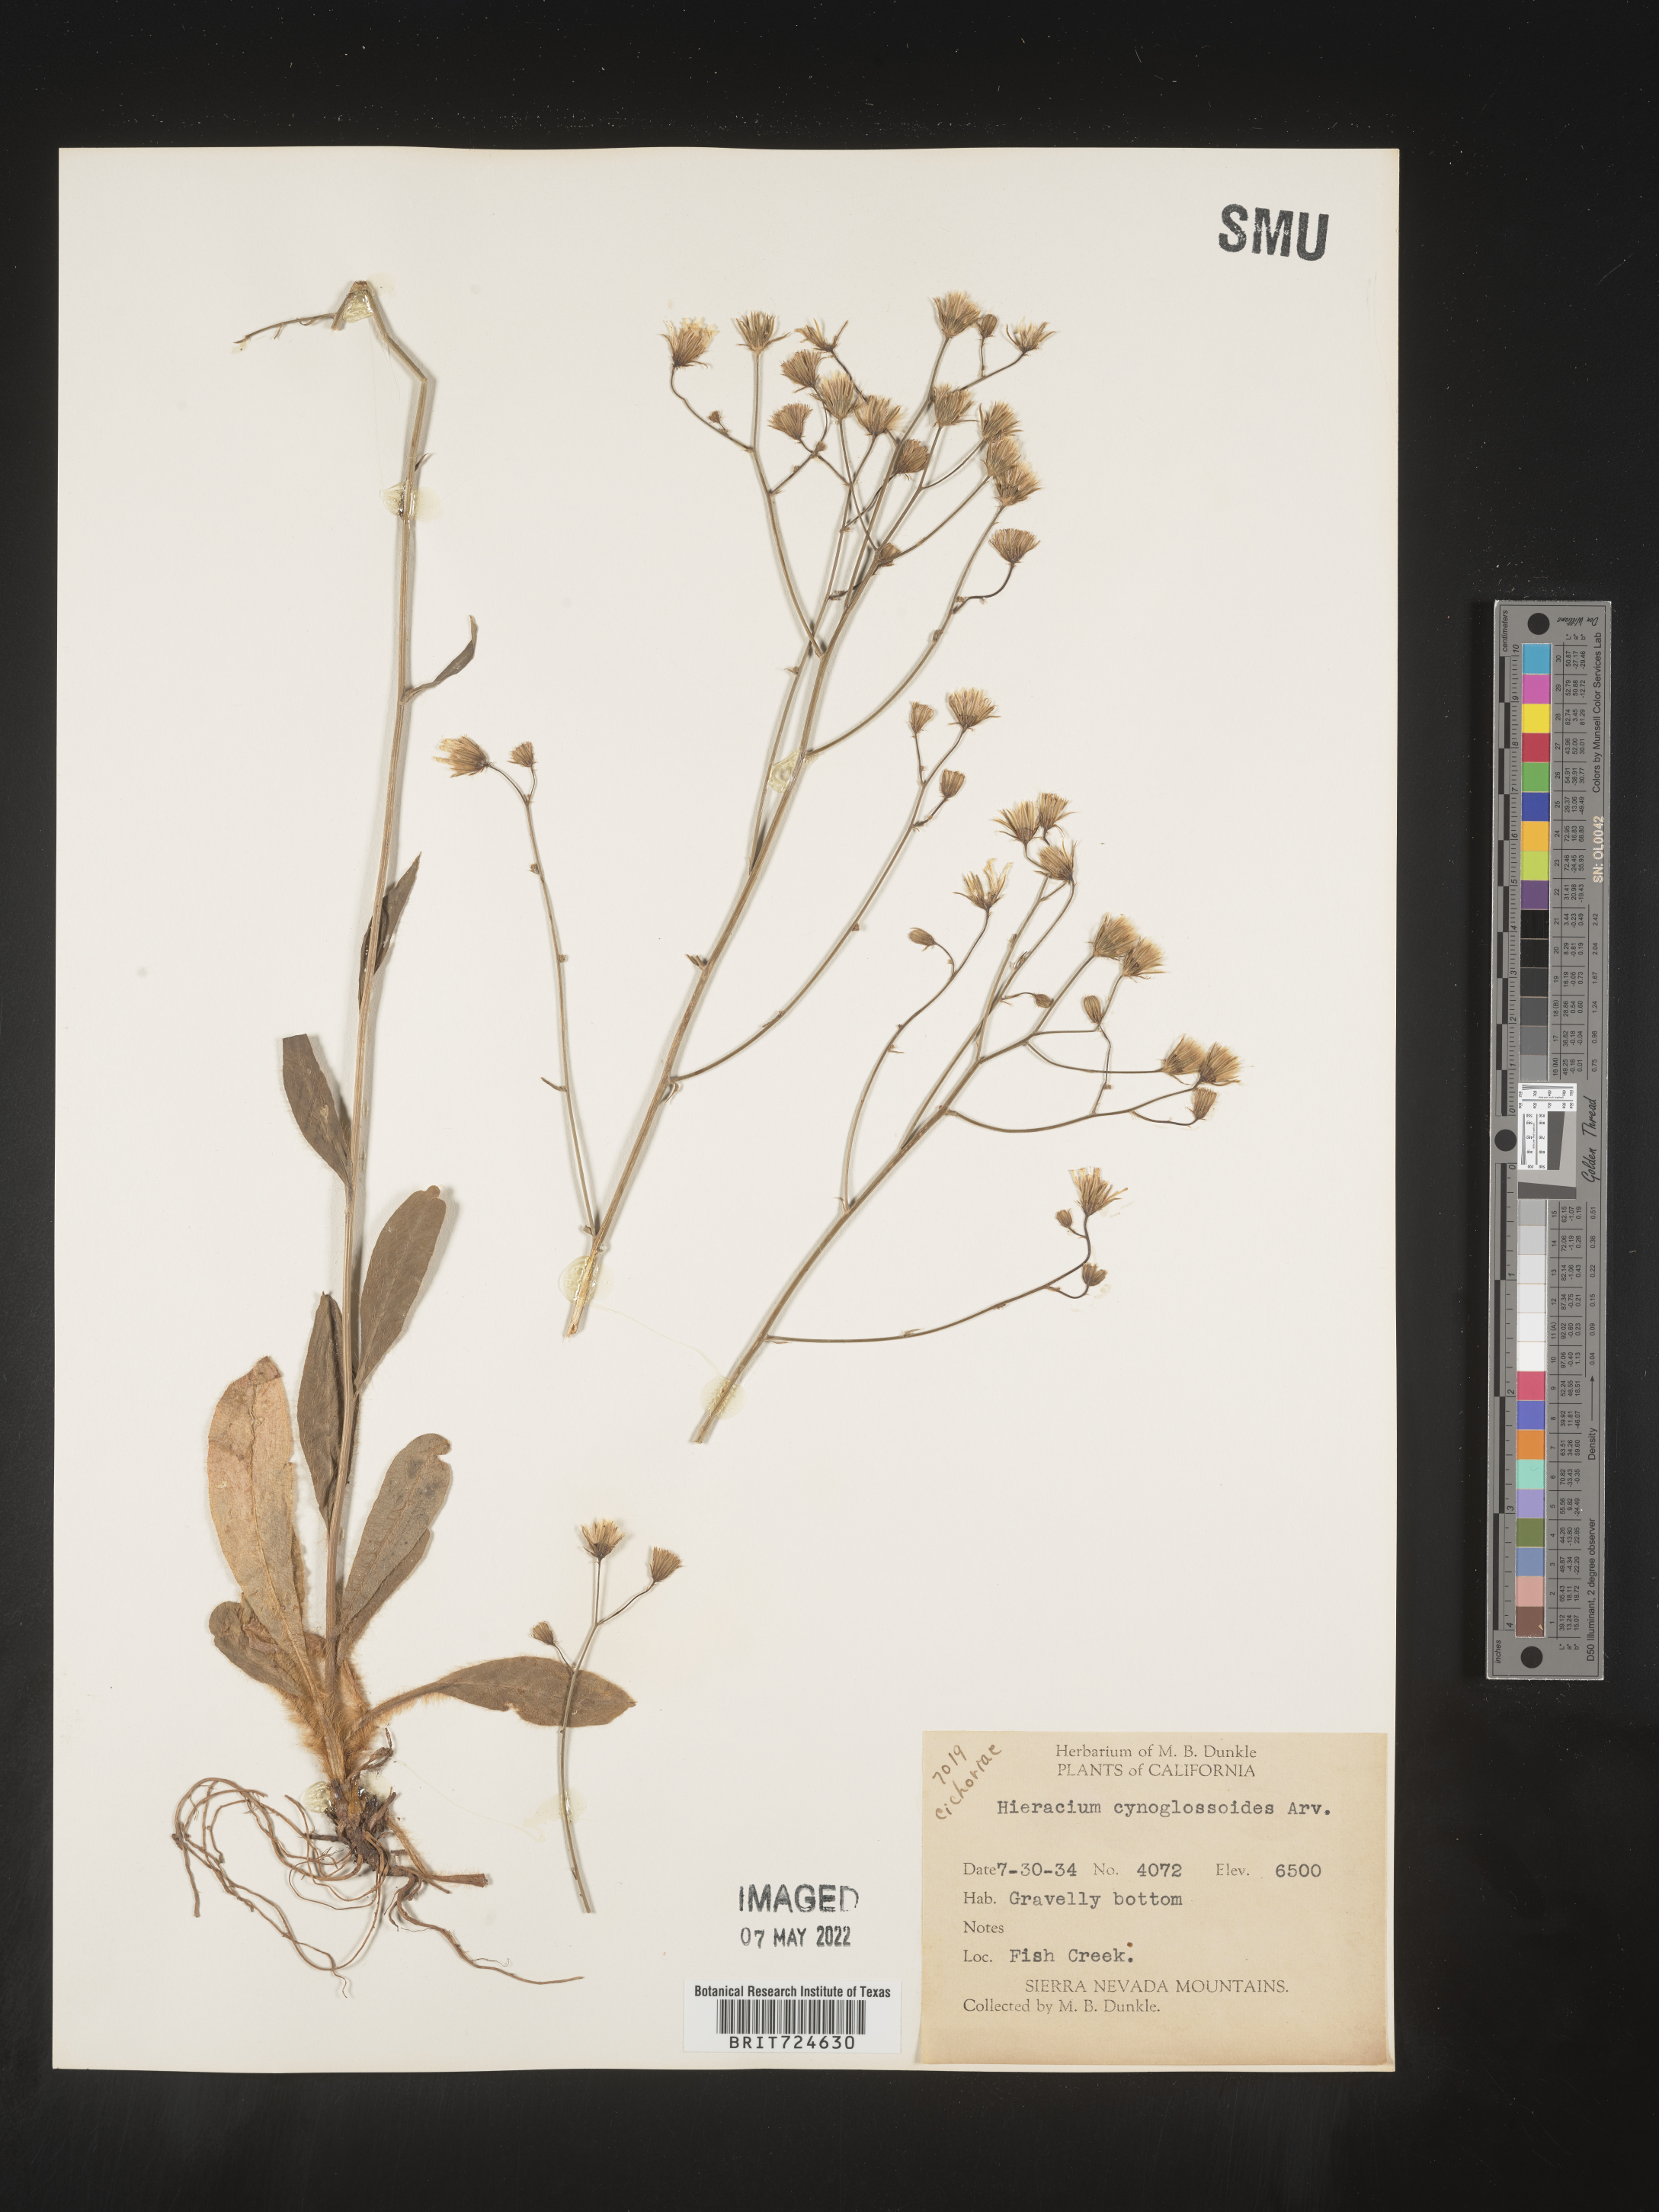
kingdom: Plantae
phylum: Tracheophyta
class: Magnoliopsida
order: Asterales
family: Asteraceae
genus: Hieracium
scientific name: Hieracium scouleri
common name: Hound's-tongue hawkweed
